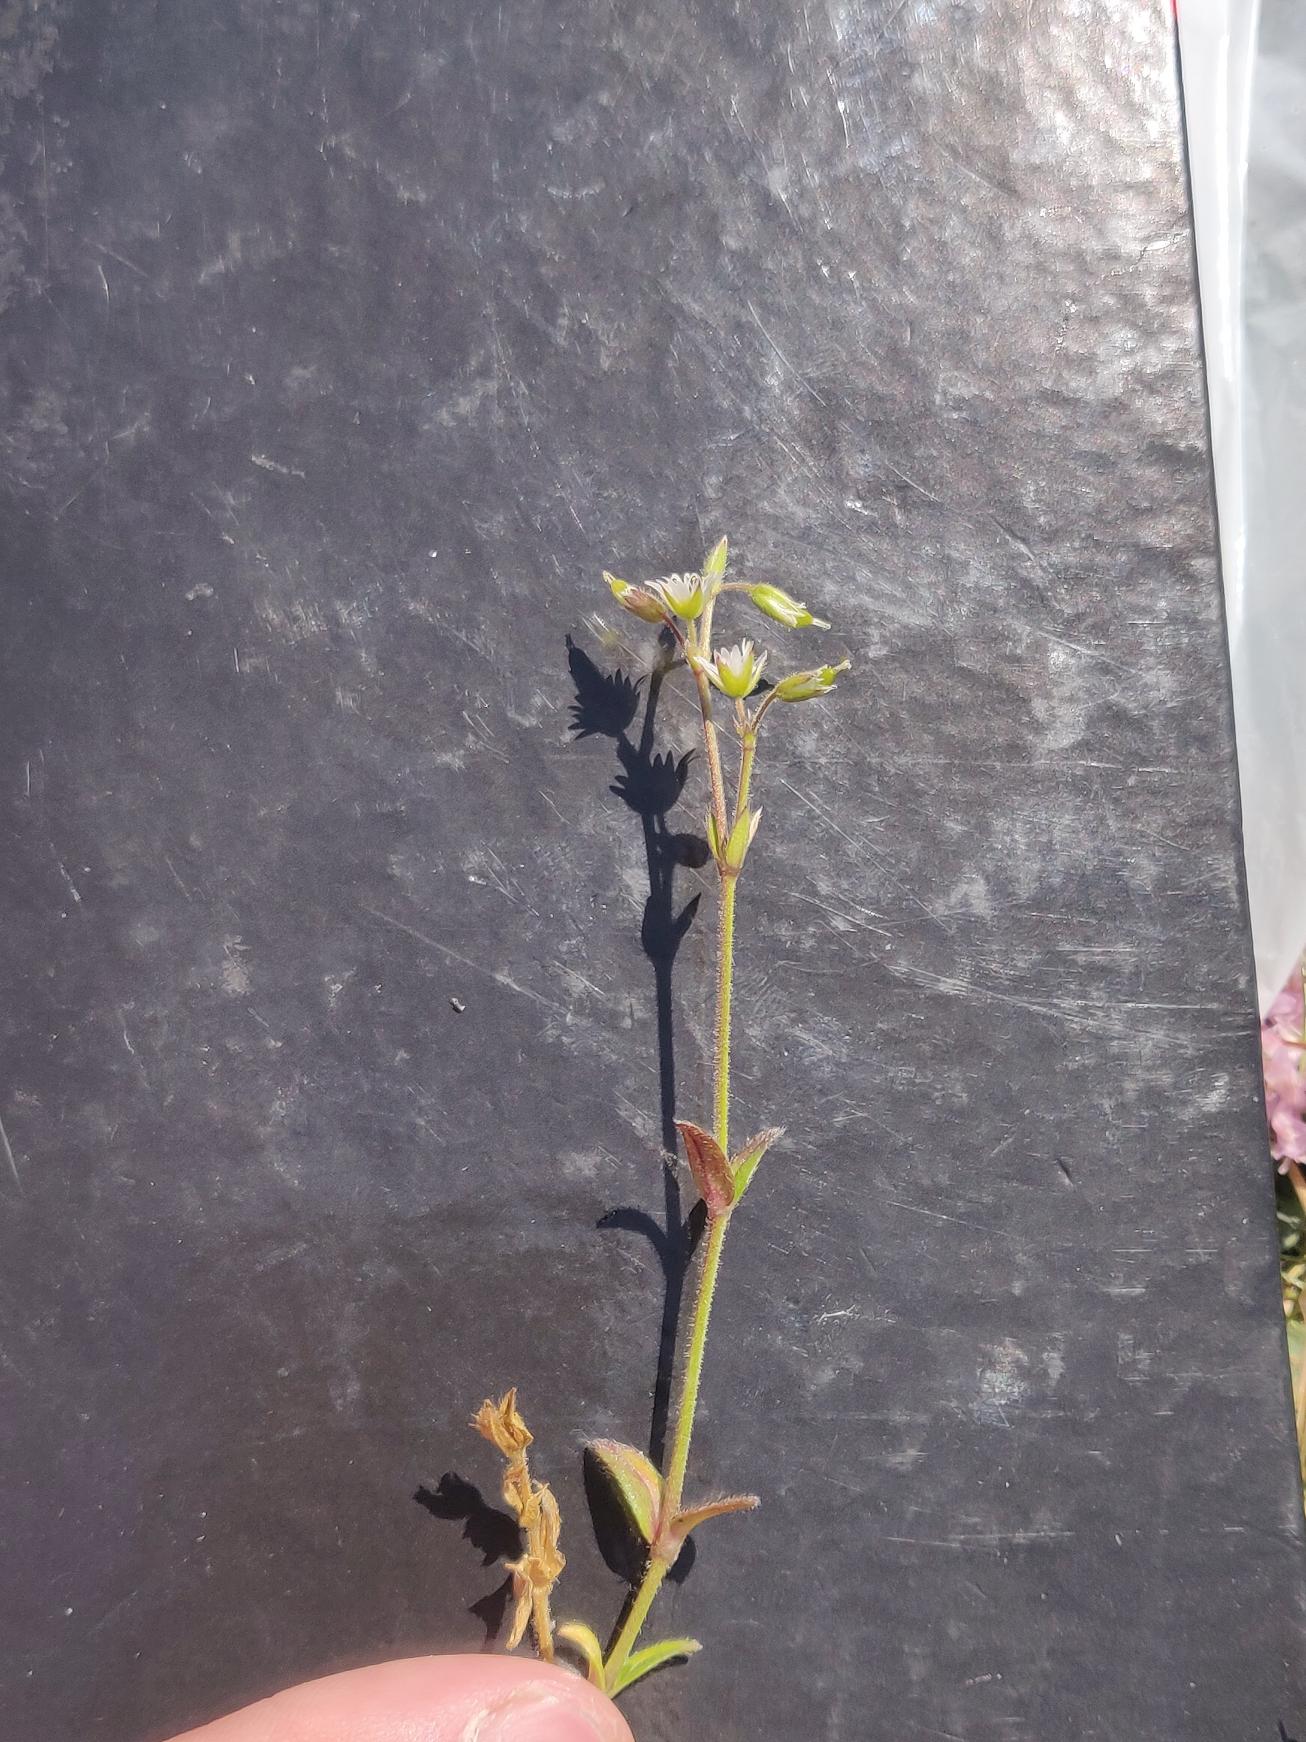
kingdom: Plantae
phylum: Tracheophyta
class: Magnoliopsida
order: Caryophyllales
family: Caryophyllaceae
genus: Cerastium
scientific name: Cerastium fontanum
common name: Almindelig hønsetarm
